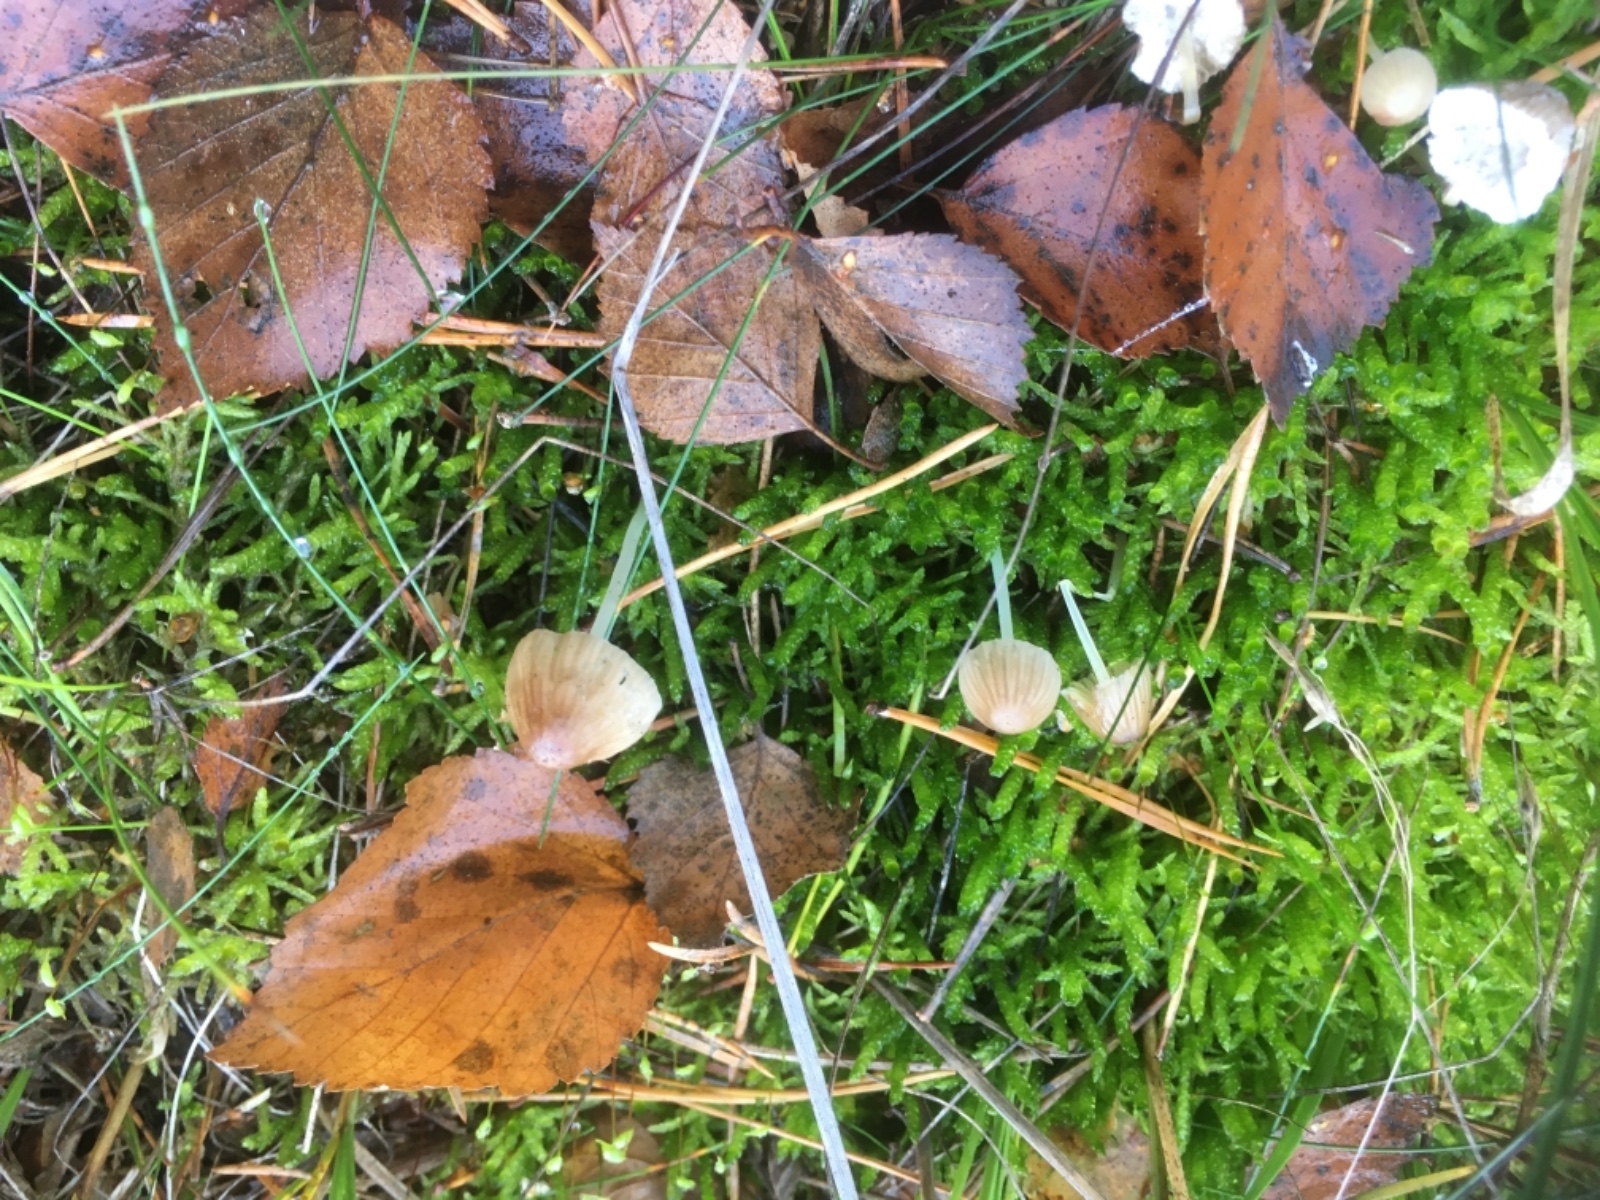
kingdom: Fungi
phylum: Basidiomycota
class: Agaricomycetes
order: Agaricales
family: Mycenaceae
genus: Mycena
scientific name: Mycena
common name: huesvamp
